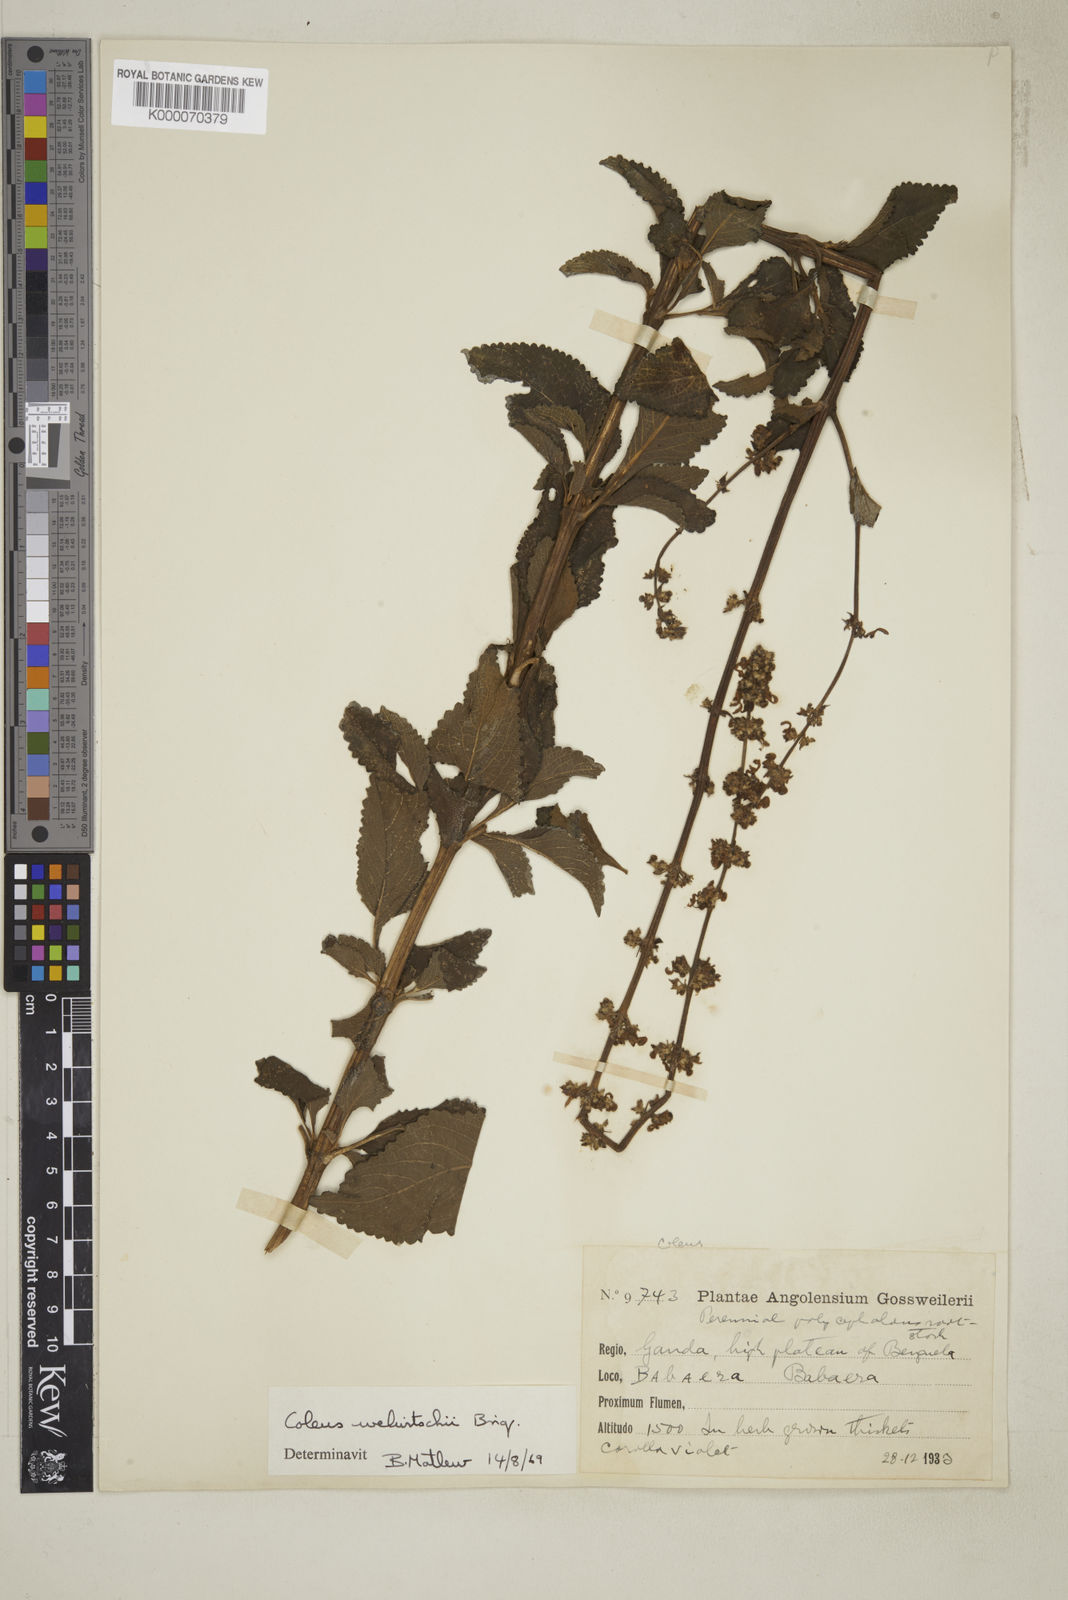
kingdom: Plantae
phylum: Tracheophyta
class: Magnoliopsida
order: Lamiales
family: Lamiaceae
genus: Coleus
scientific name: Coleus welwitschii
